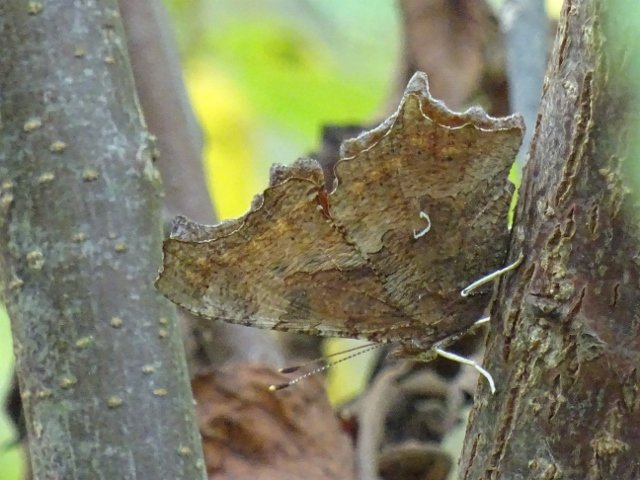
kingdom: Animalia
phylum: Arthropoda
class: Insecta
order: Lepidoptera
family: Nymphalidae
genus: Polygonia
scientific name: Polygonia comma
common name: Eastern Comma
